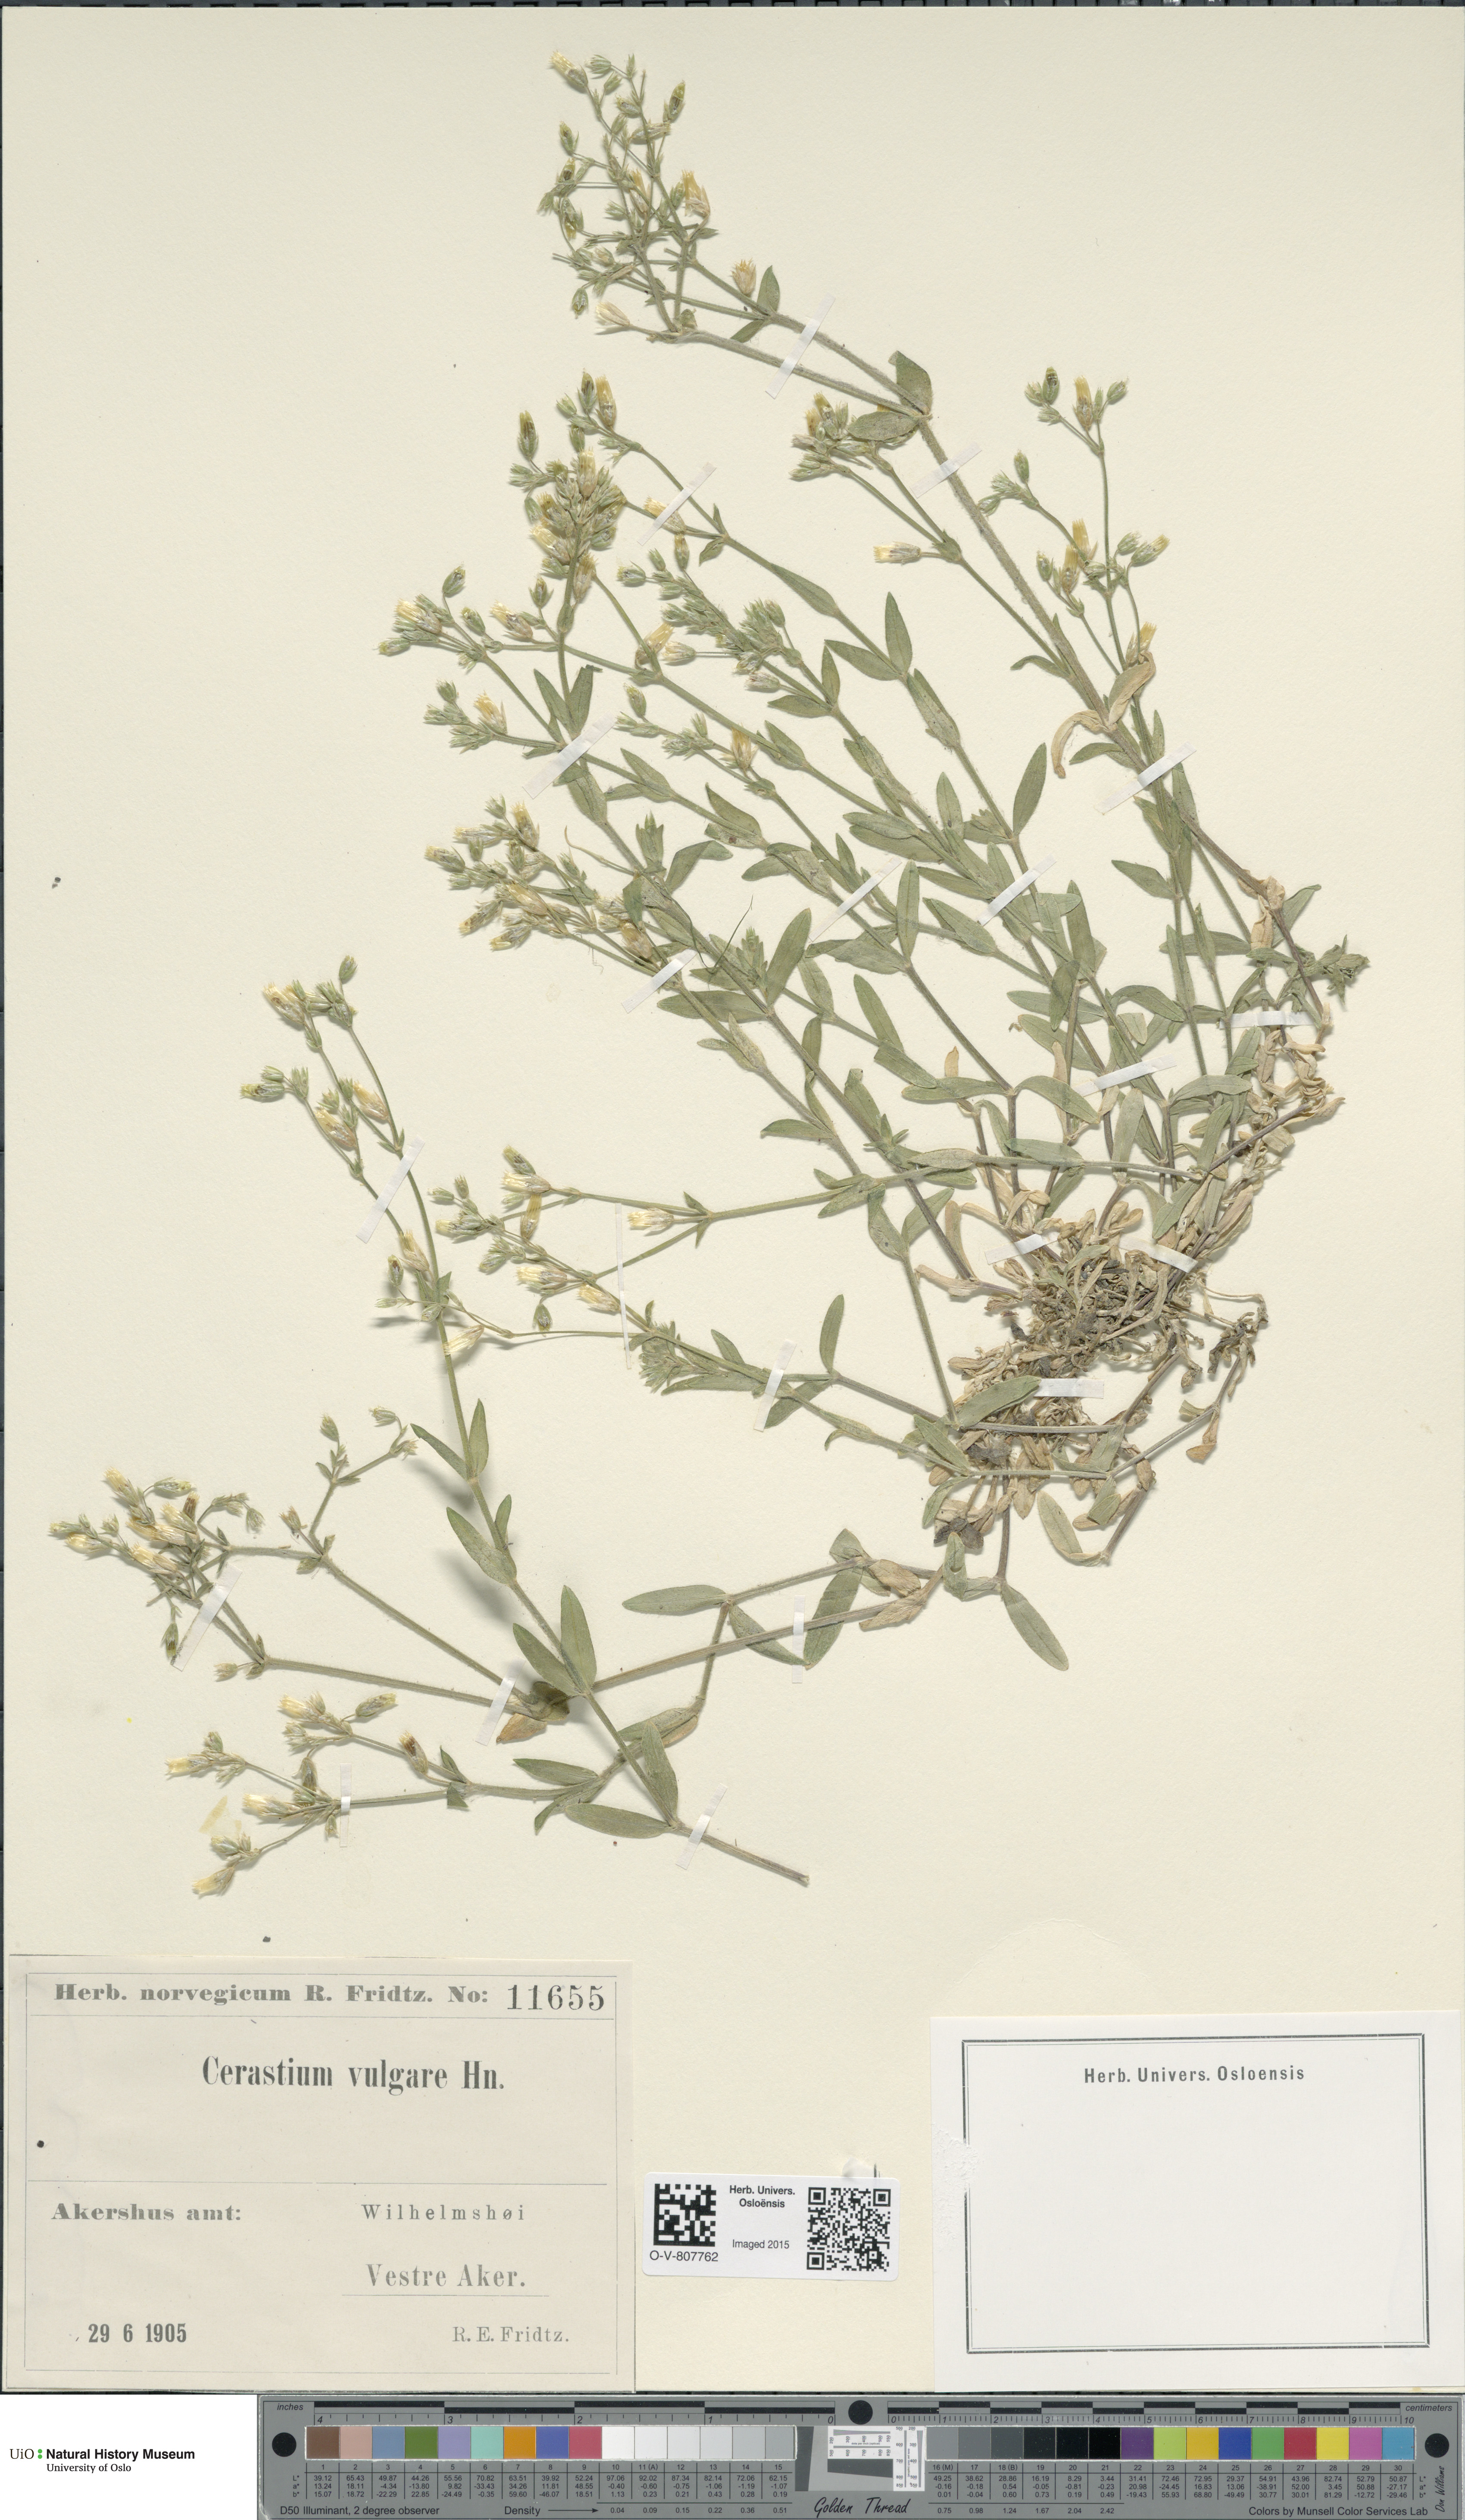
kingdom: Plantae
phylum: Tracheophyta
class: Magnoliopsida
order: Caryophyllales
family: Caryophyllaceae
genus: Cerastium
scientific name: Cerastium holosteoides
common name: Big chickweed
